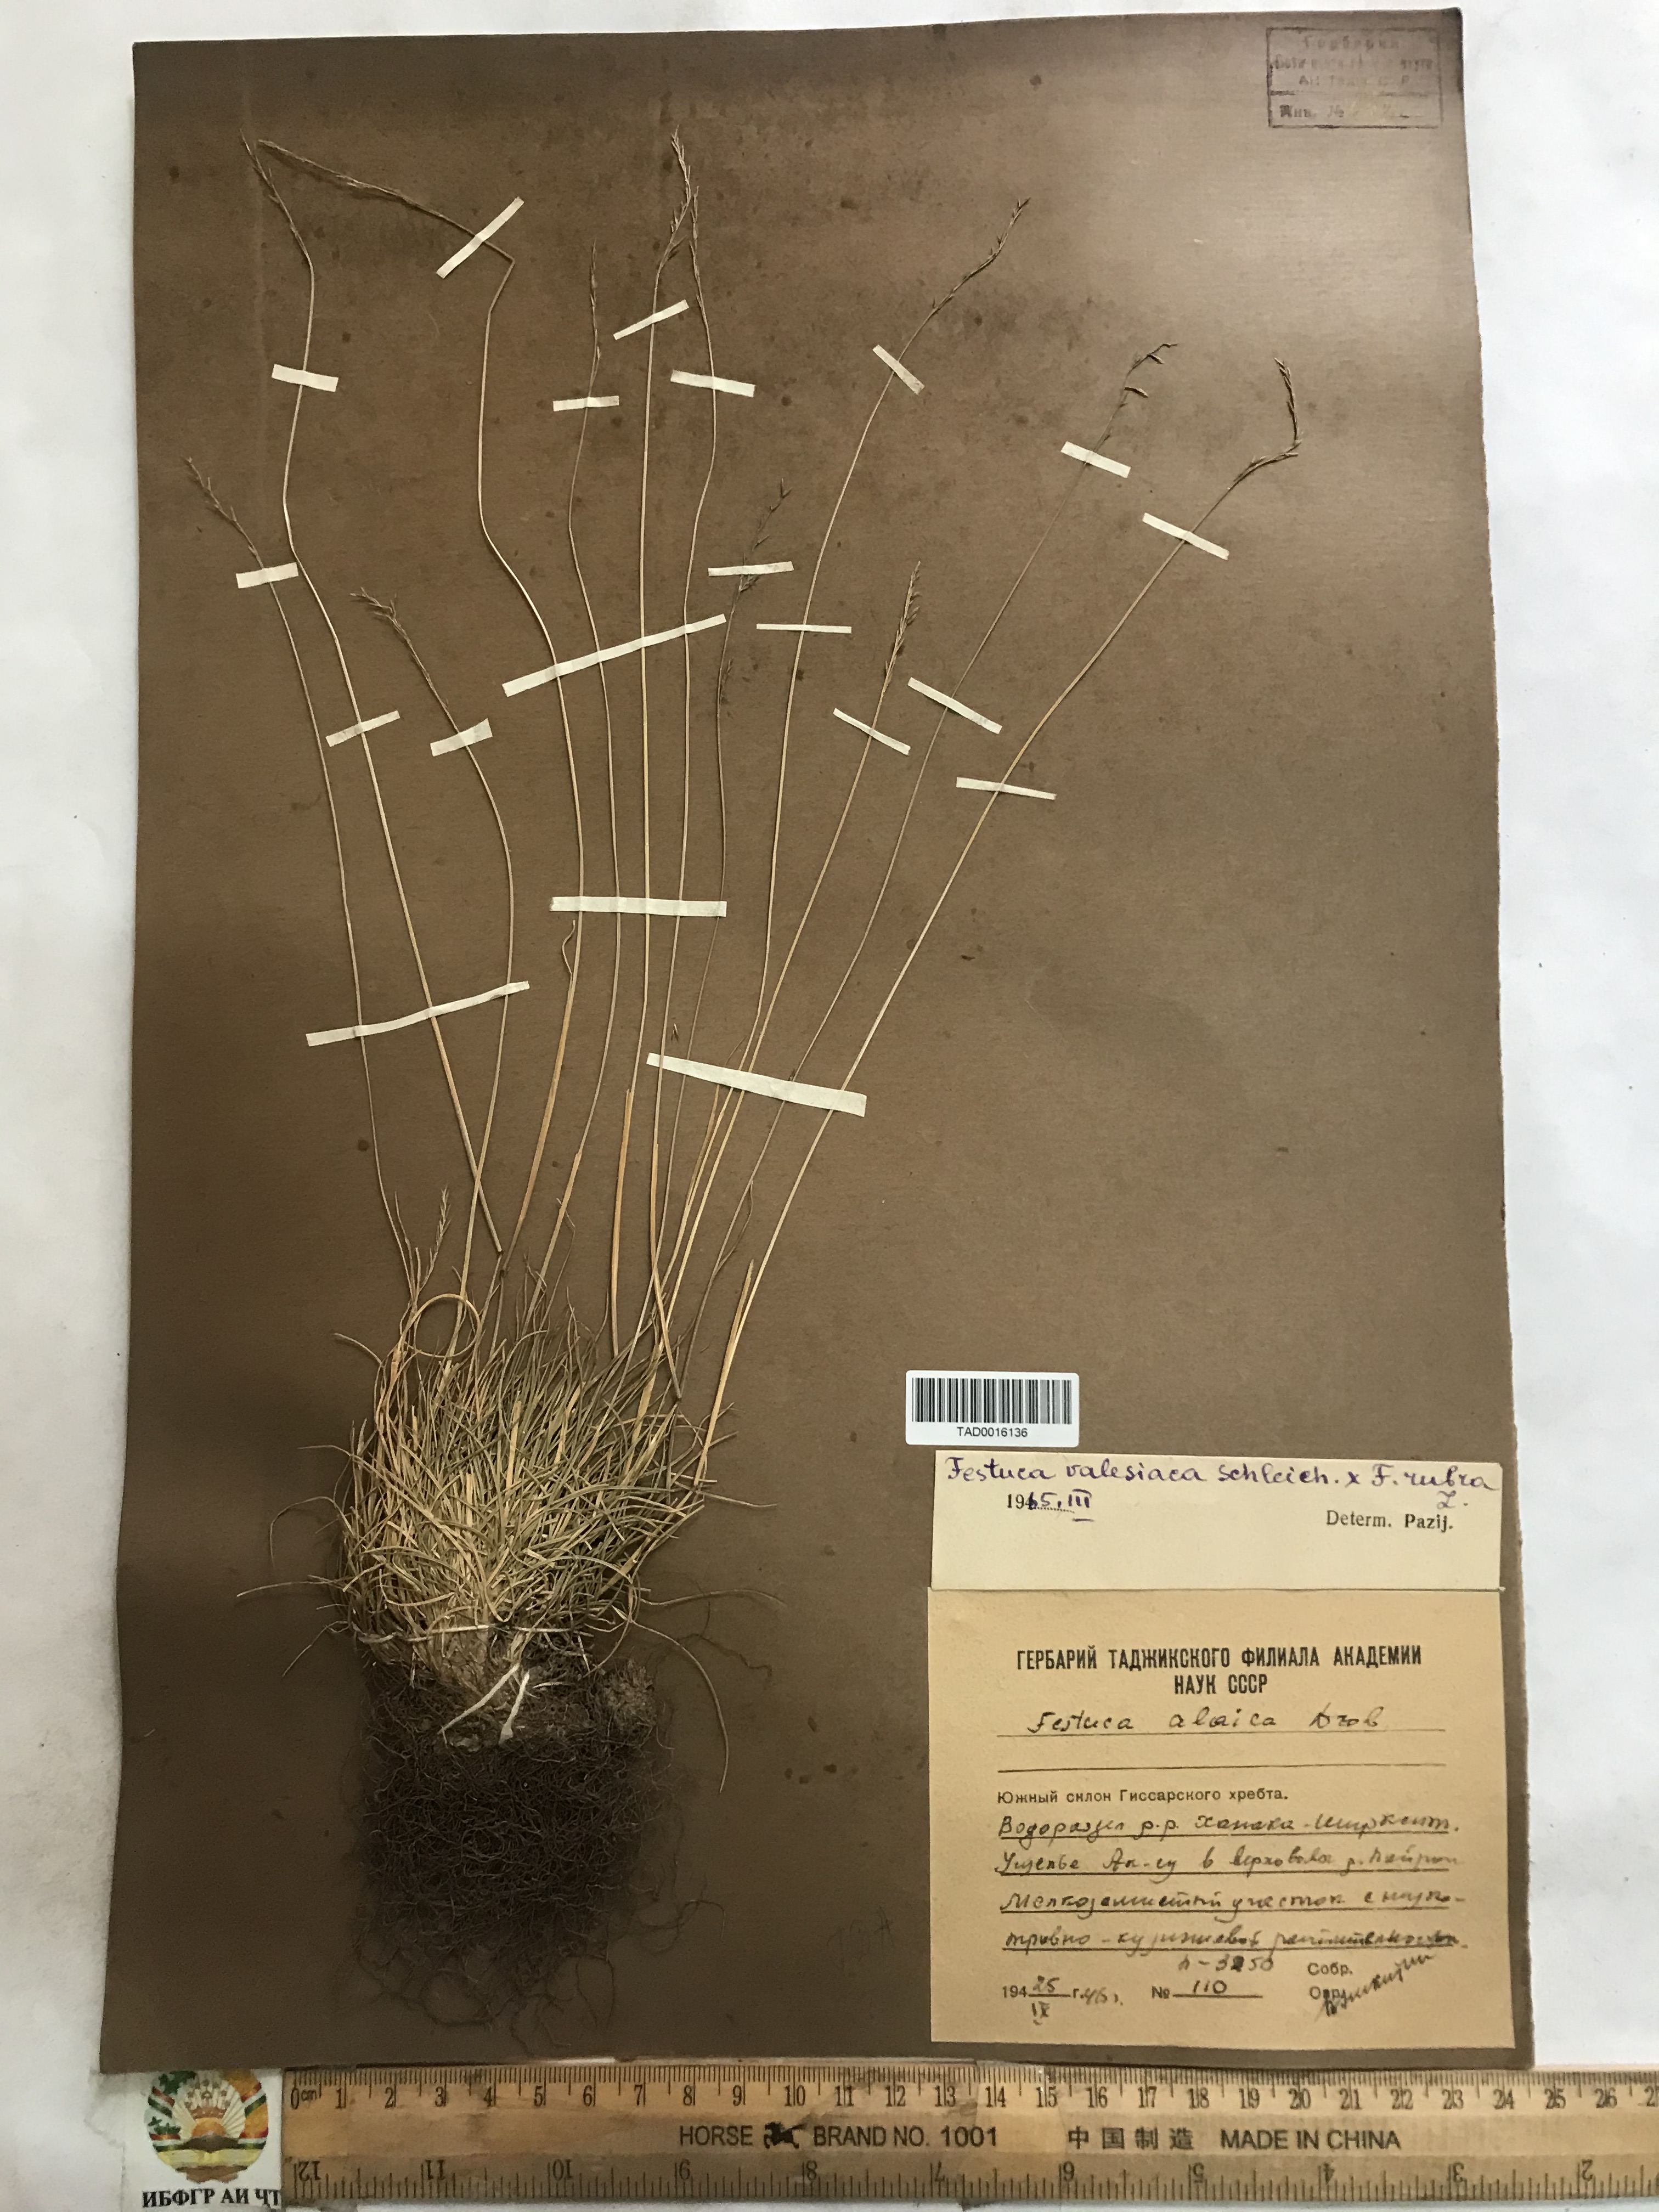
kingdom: Plantae
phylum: Tracheophyta
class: Liliopsida
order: Poales
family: Poaceae
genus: Festuca
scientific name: Festuca valesiaca
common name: Volga fescue
